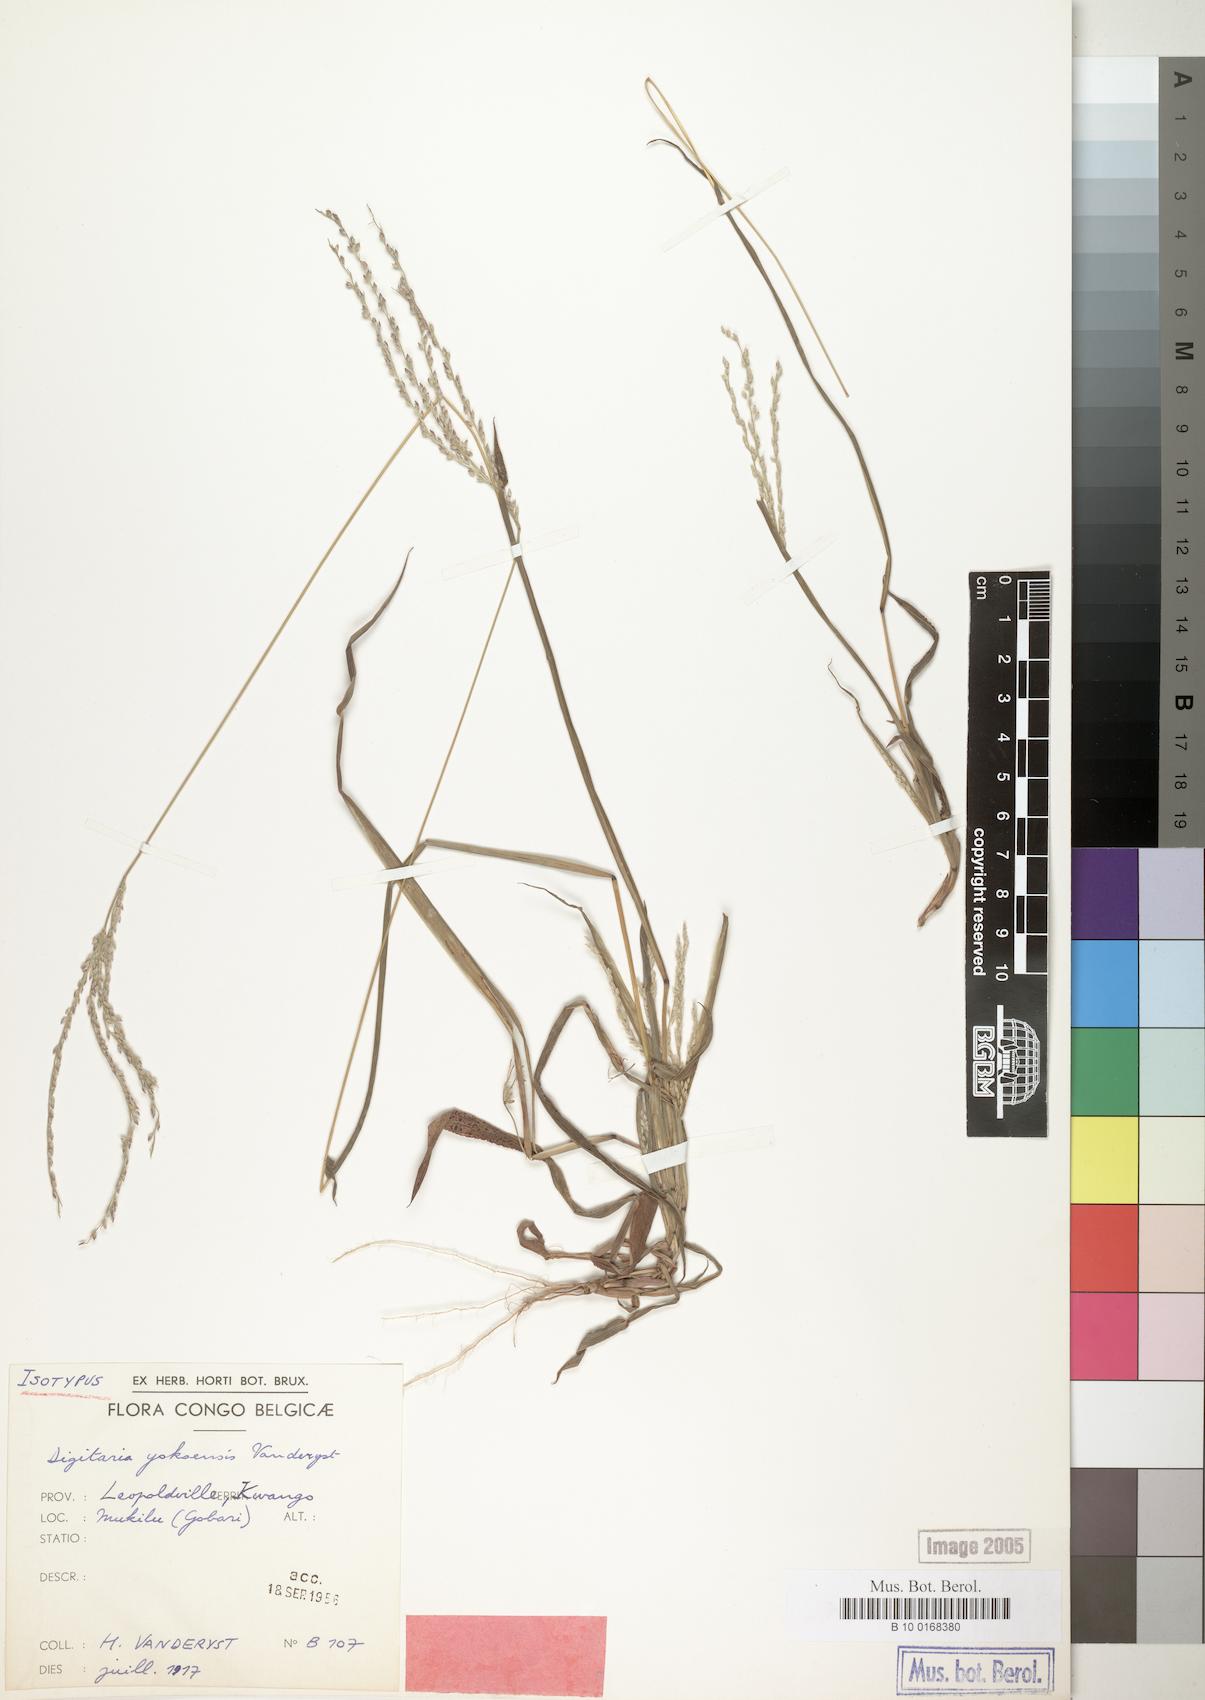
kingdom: Plantae
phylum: Tracheophyta
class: Liliopsida
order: Poales
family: Poaceae
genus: Digitaria
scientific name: Digitaria angolensis
